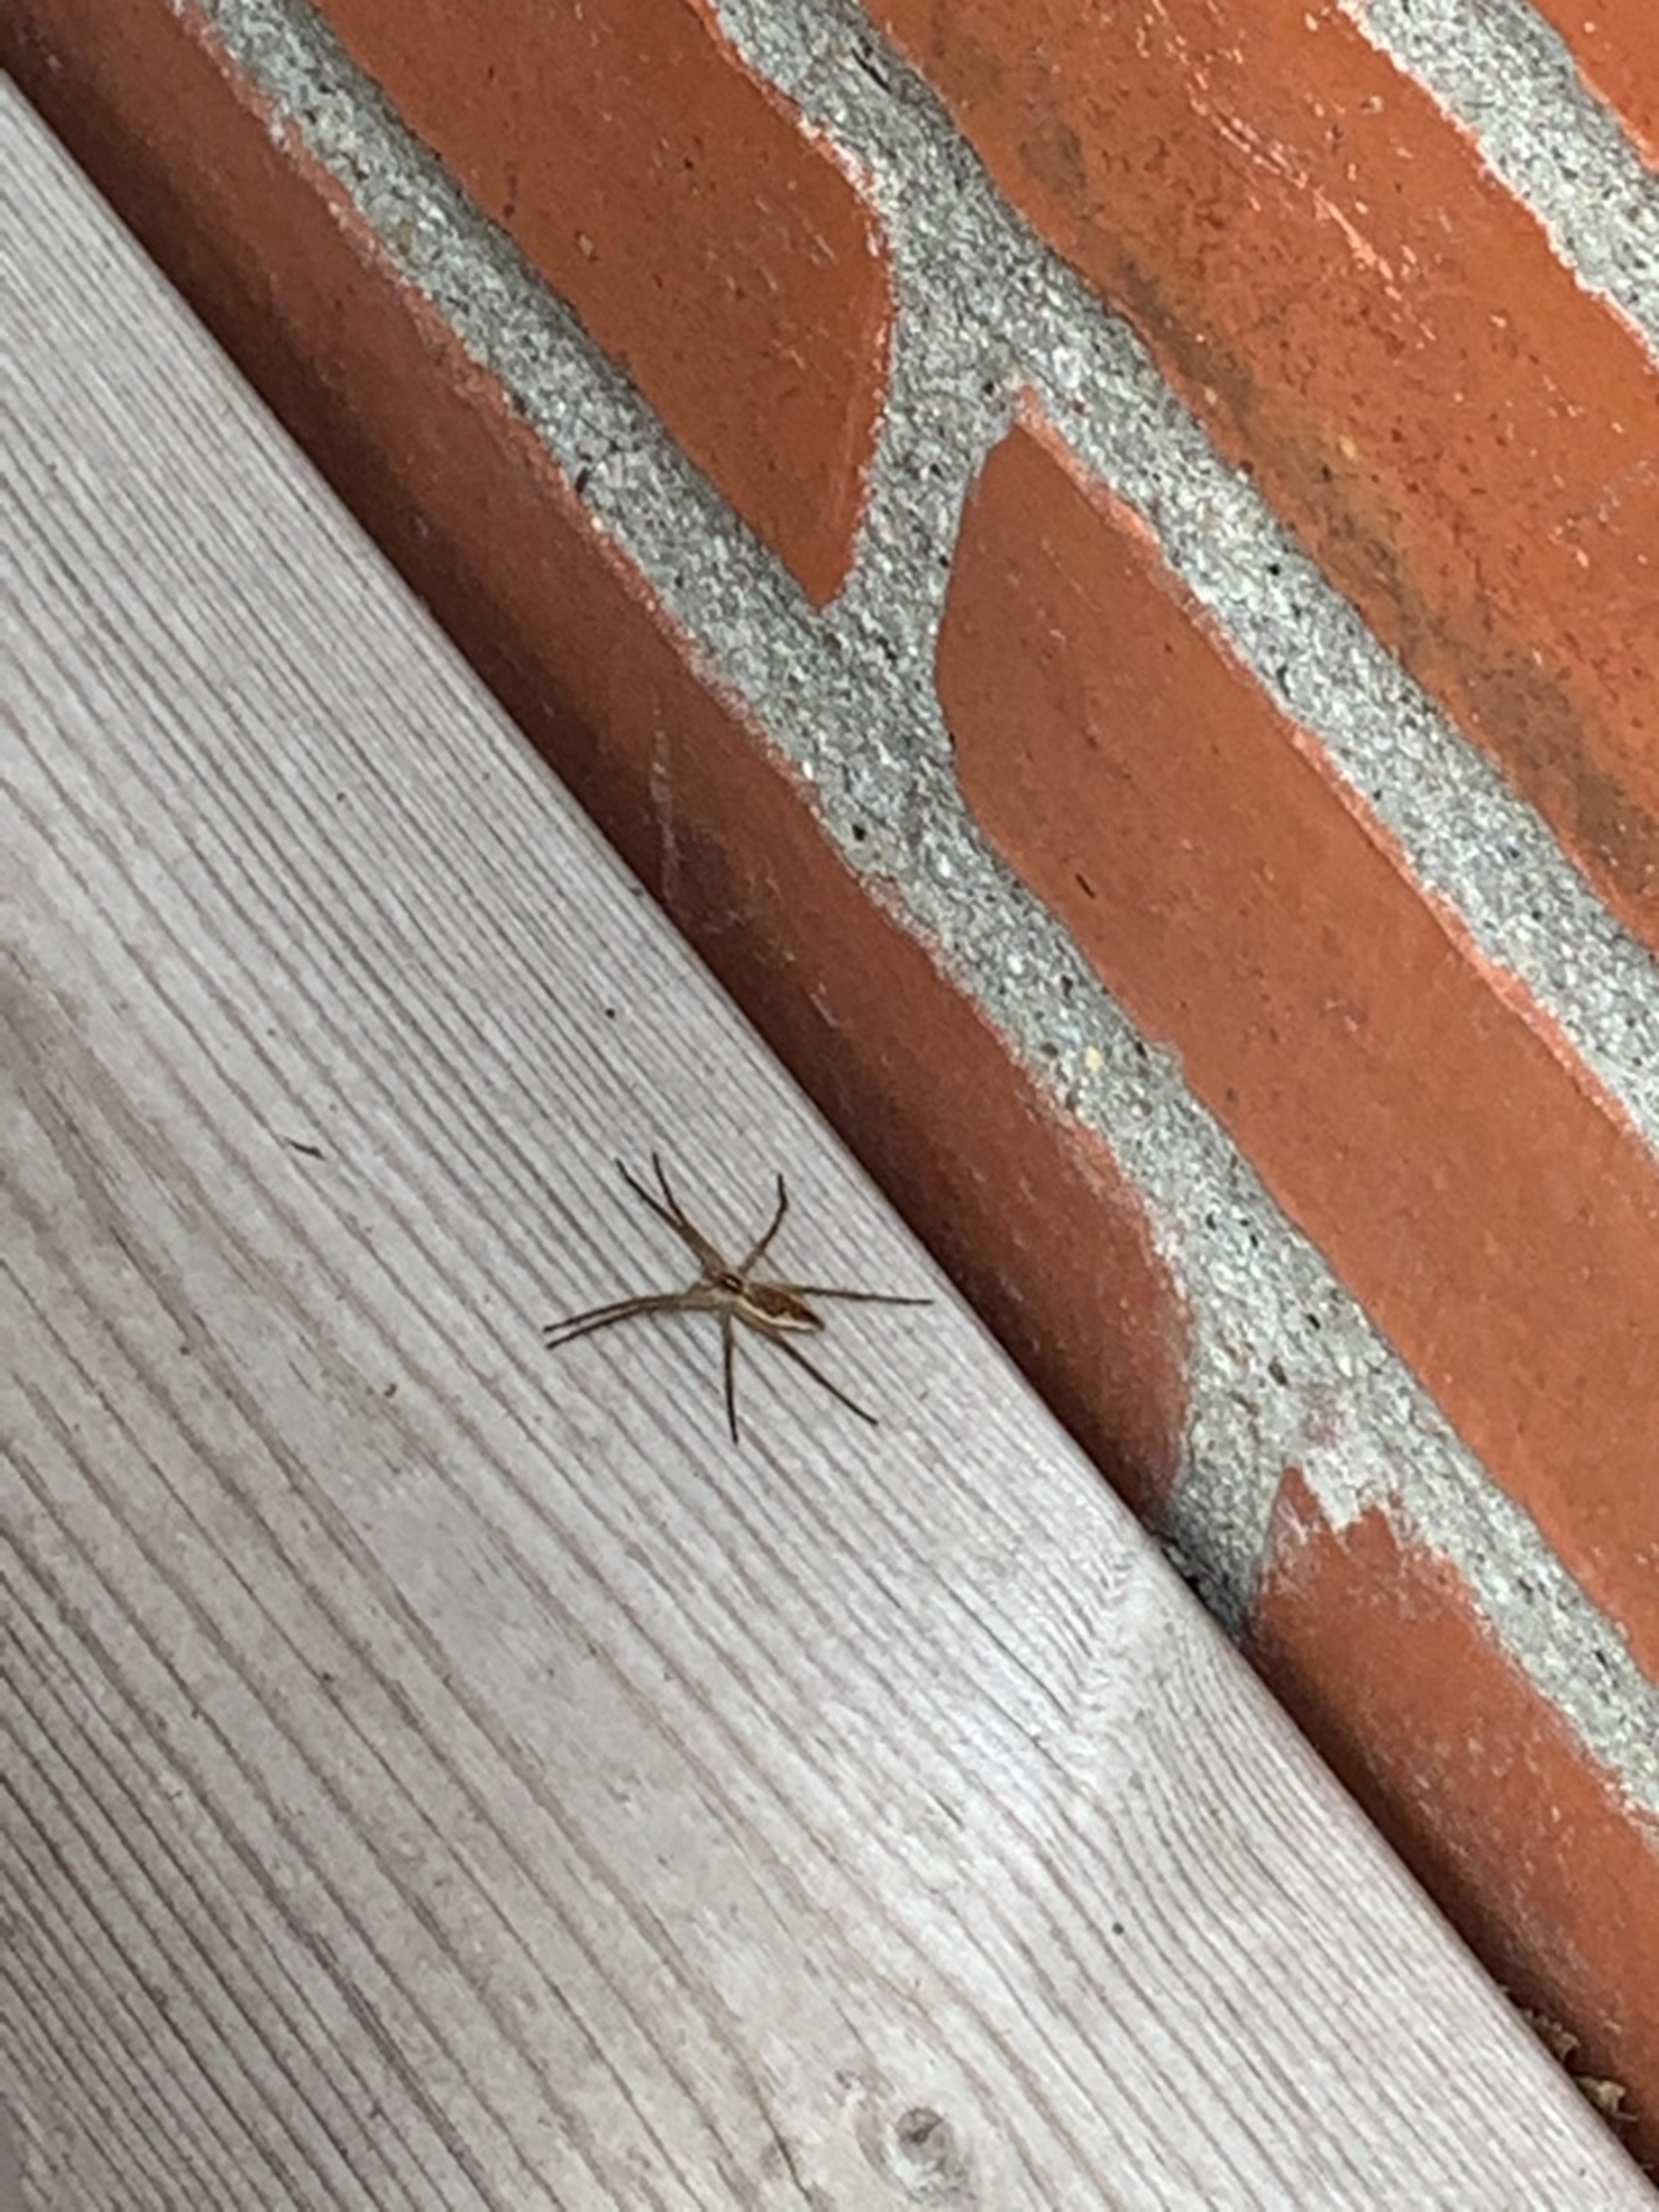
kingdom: Animalia
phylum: Arthropoda
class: Arachnida
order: Araneae
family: Pisauridae
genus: Pisaura
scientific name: Pisaura mirabilis
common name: Almindelig rovedderkop
